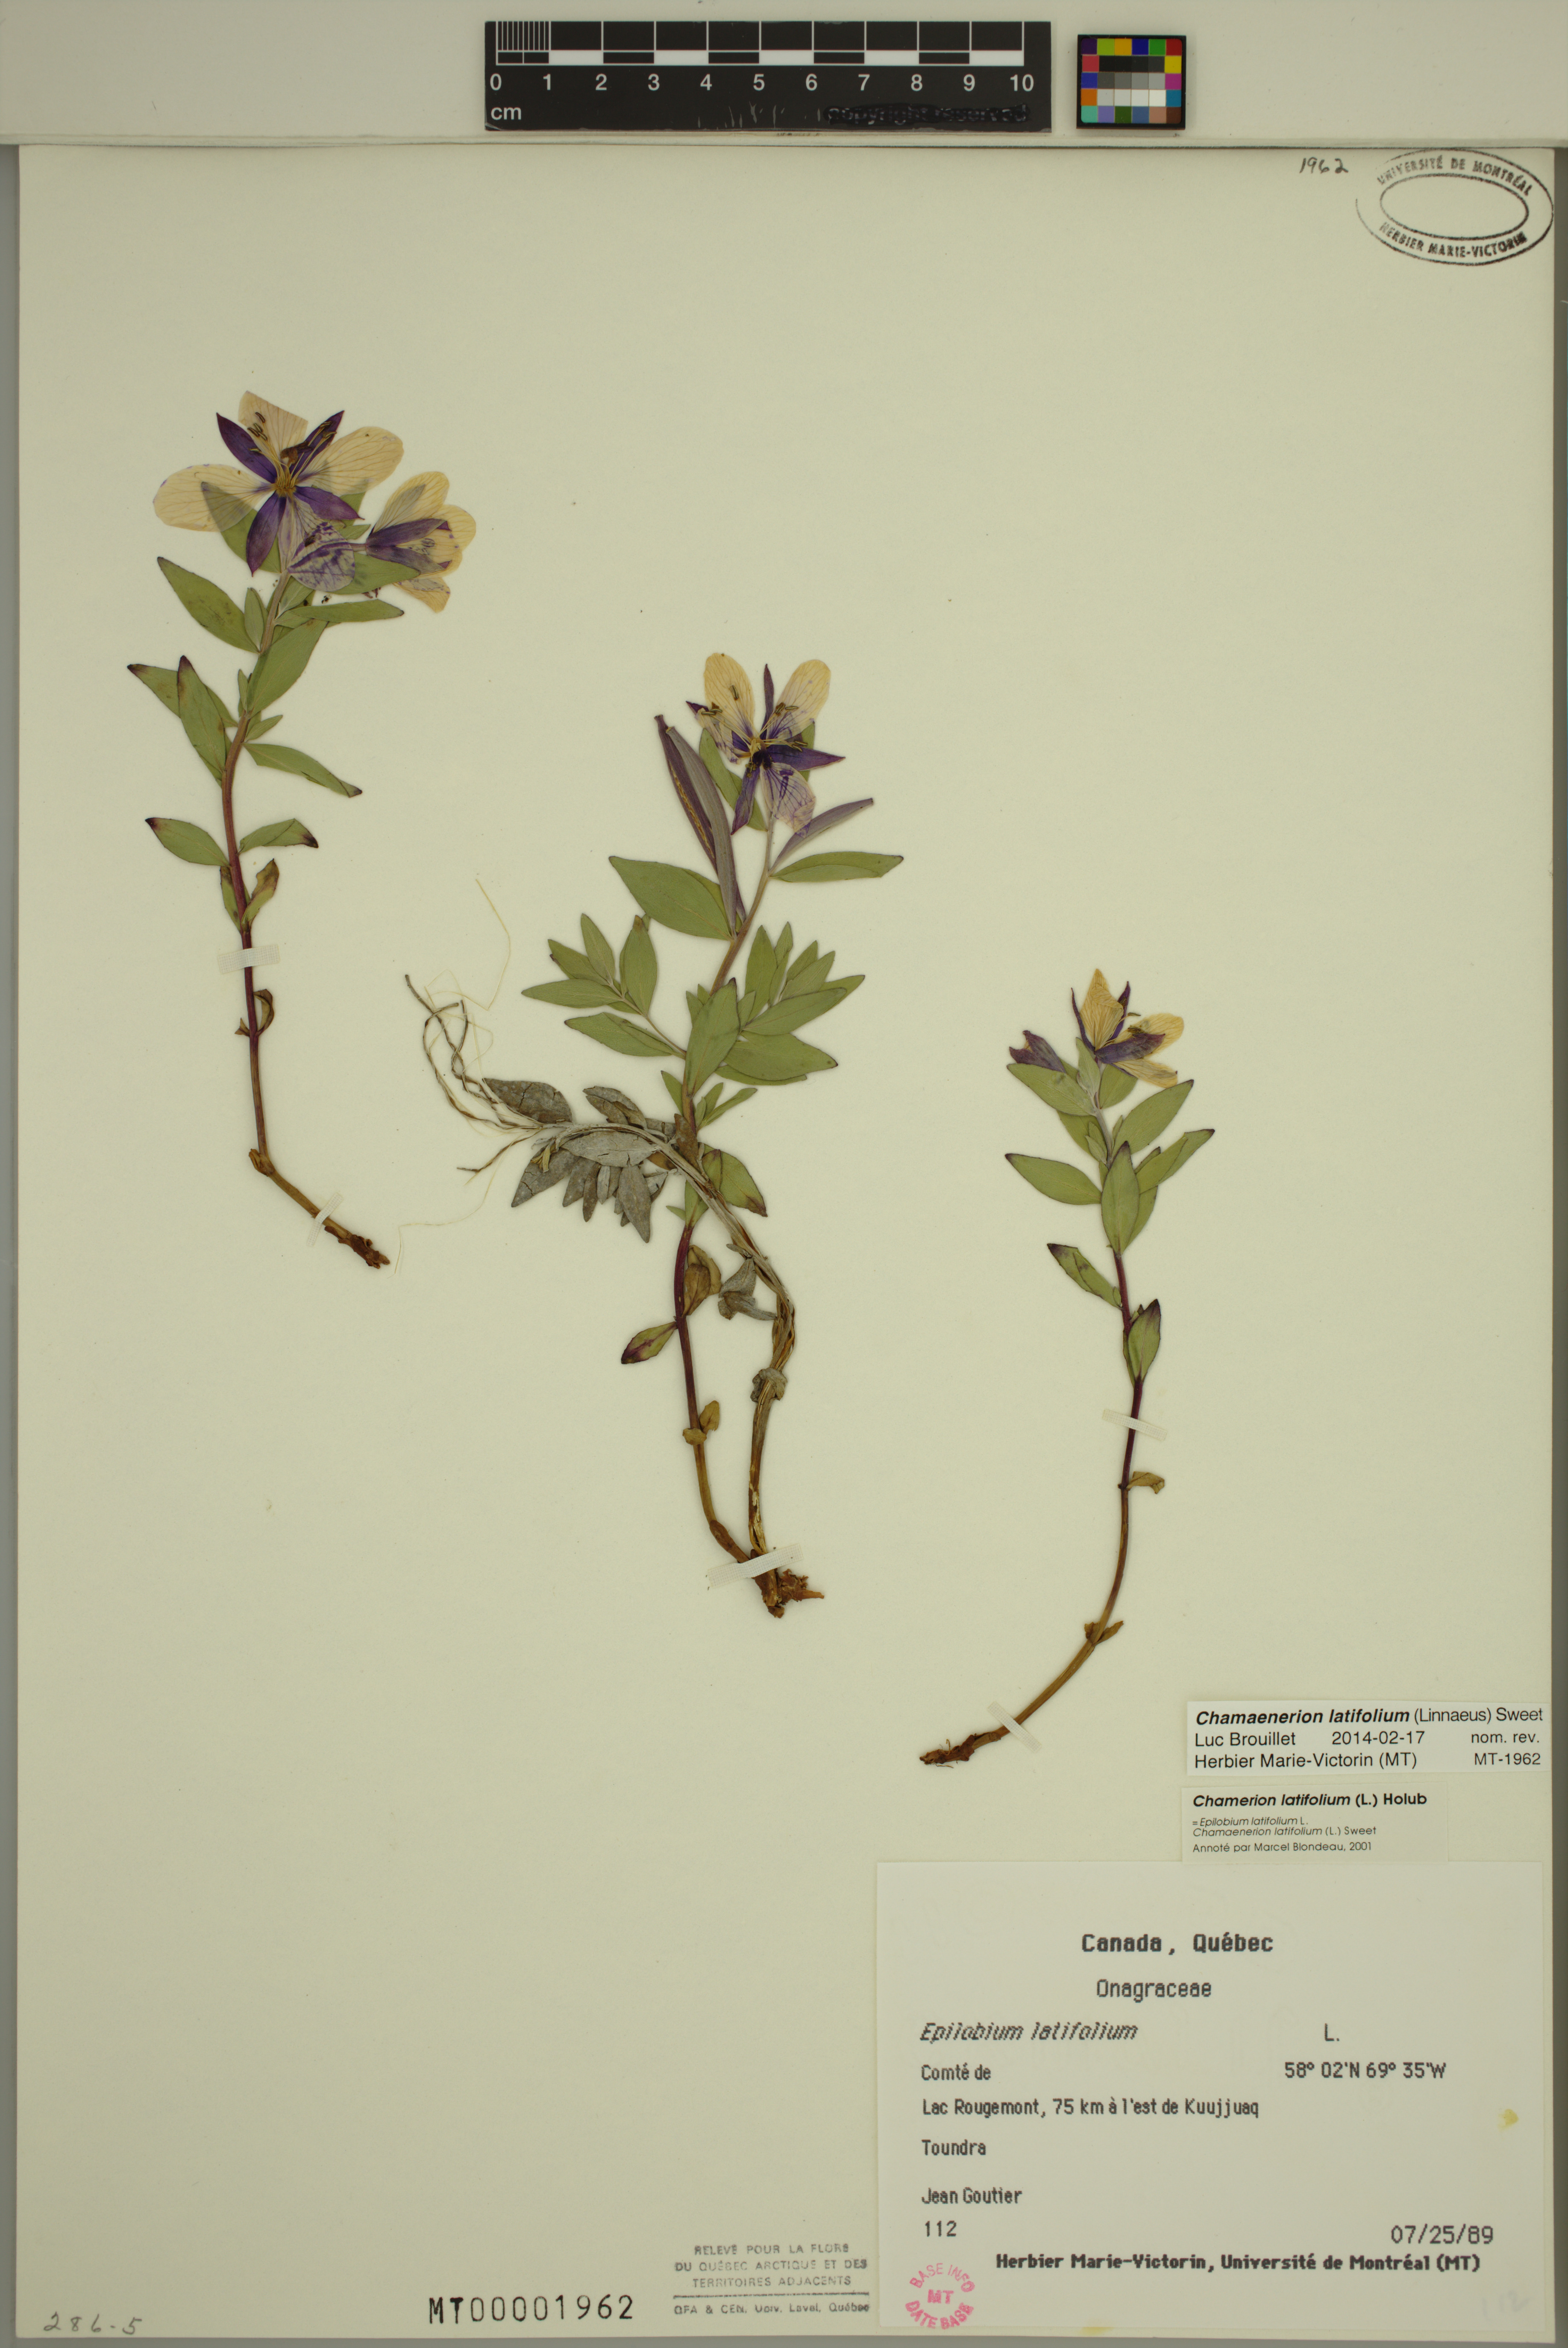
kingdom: Plantae
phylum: Tracheophyta
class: Magnoliopsida
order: Myrtales
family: Onagraceae
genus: Chamaenerion
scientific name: Chamaenerion latifolium
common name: Dwarf fireweed
